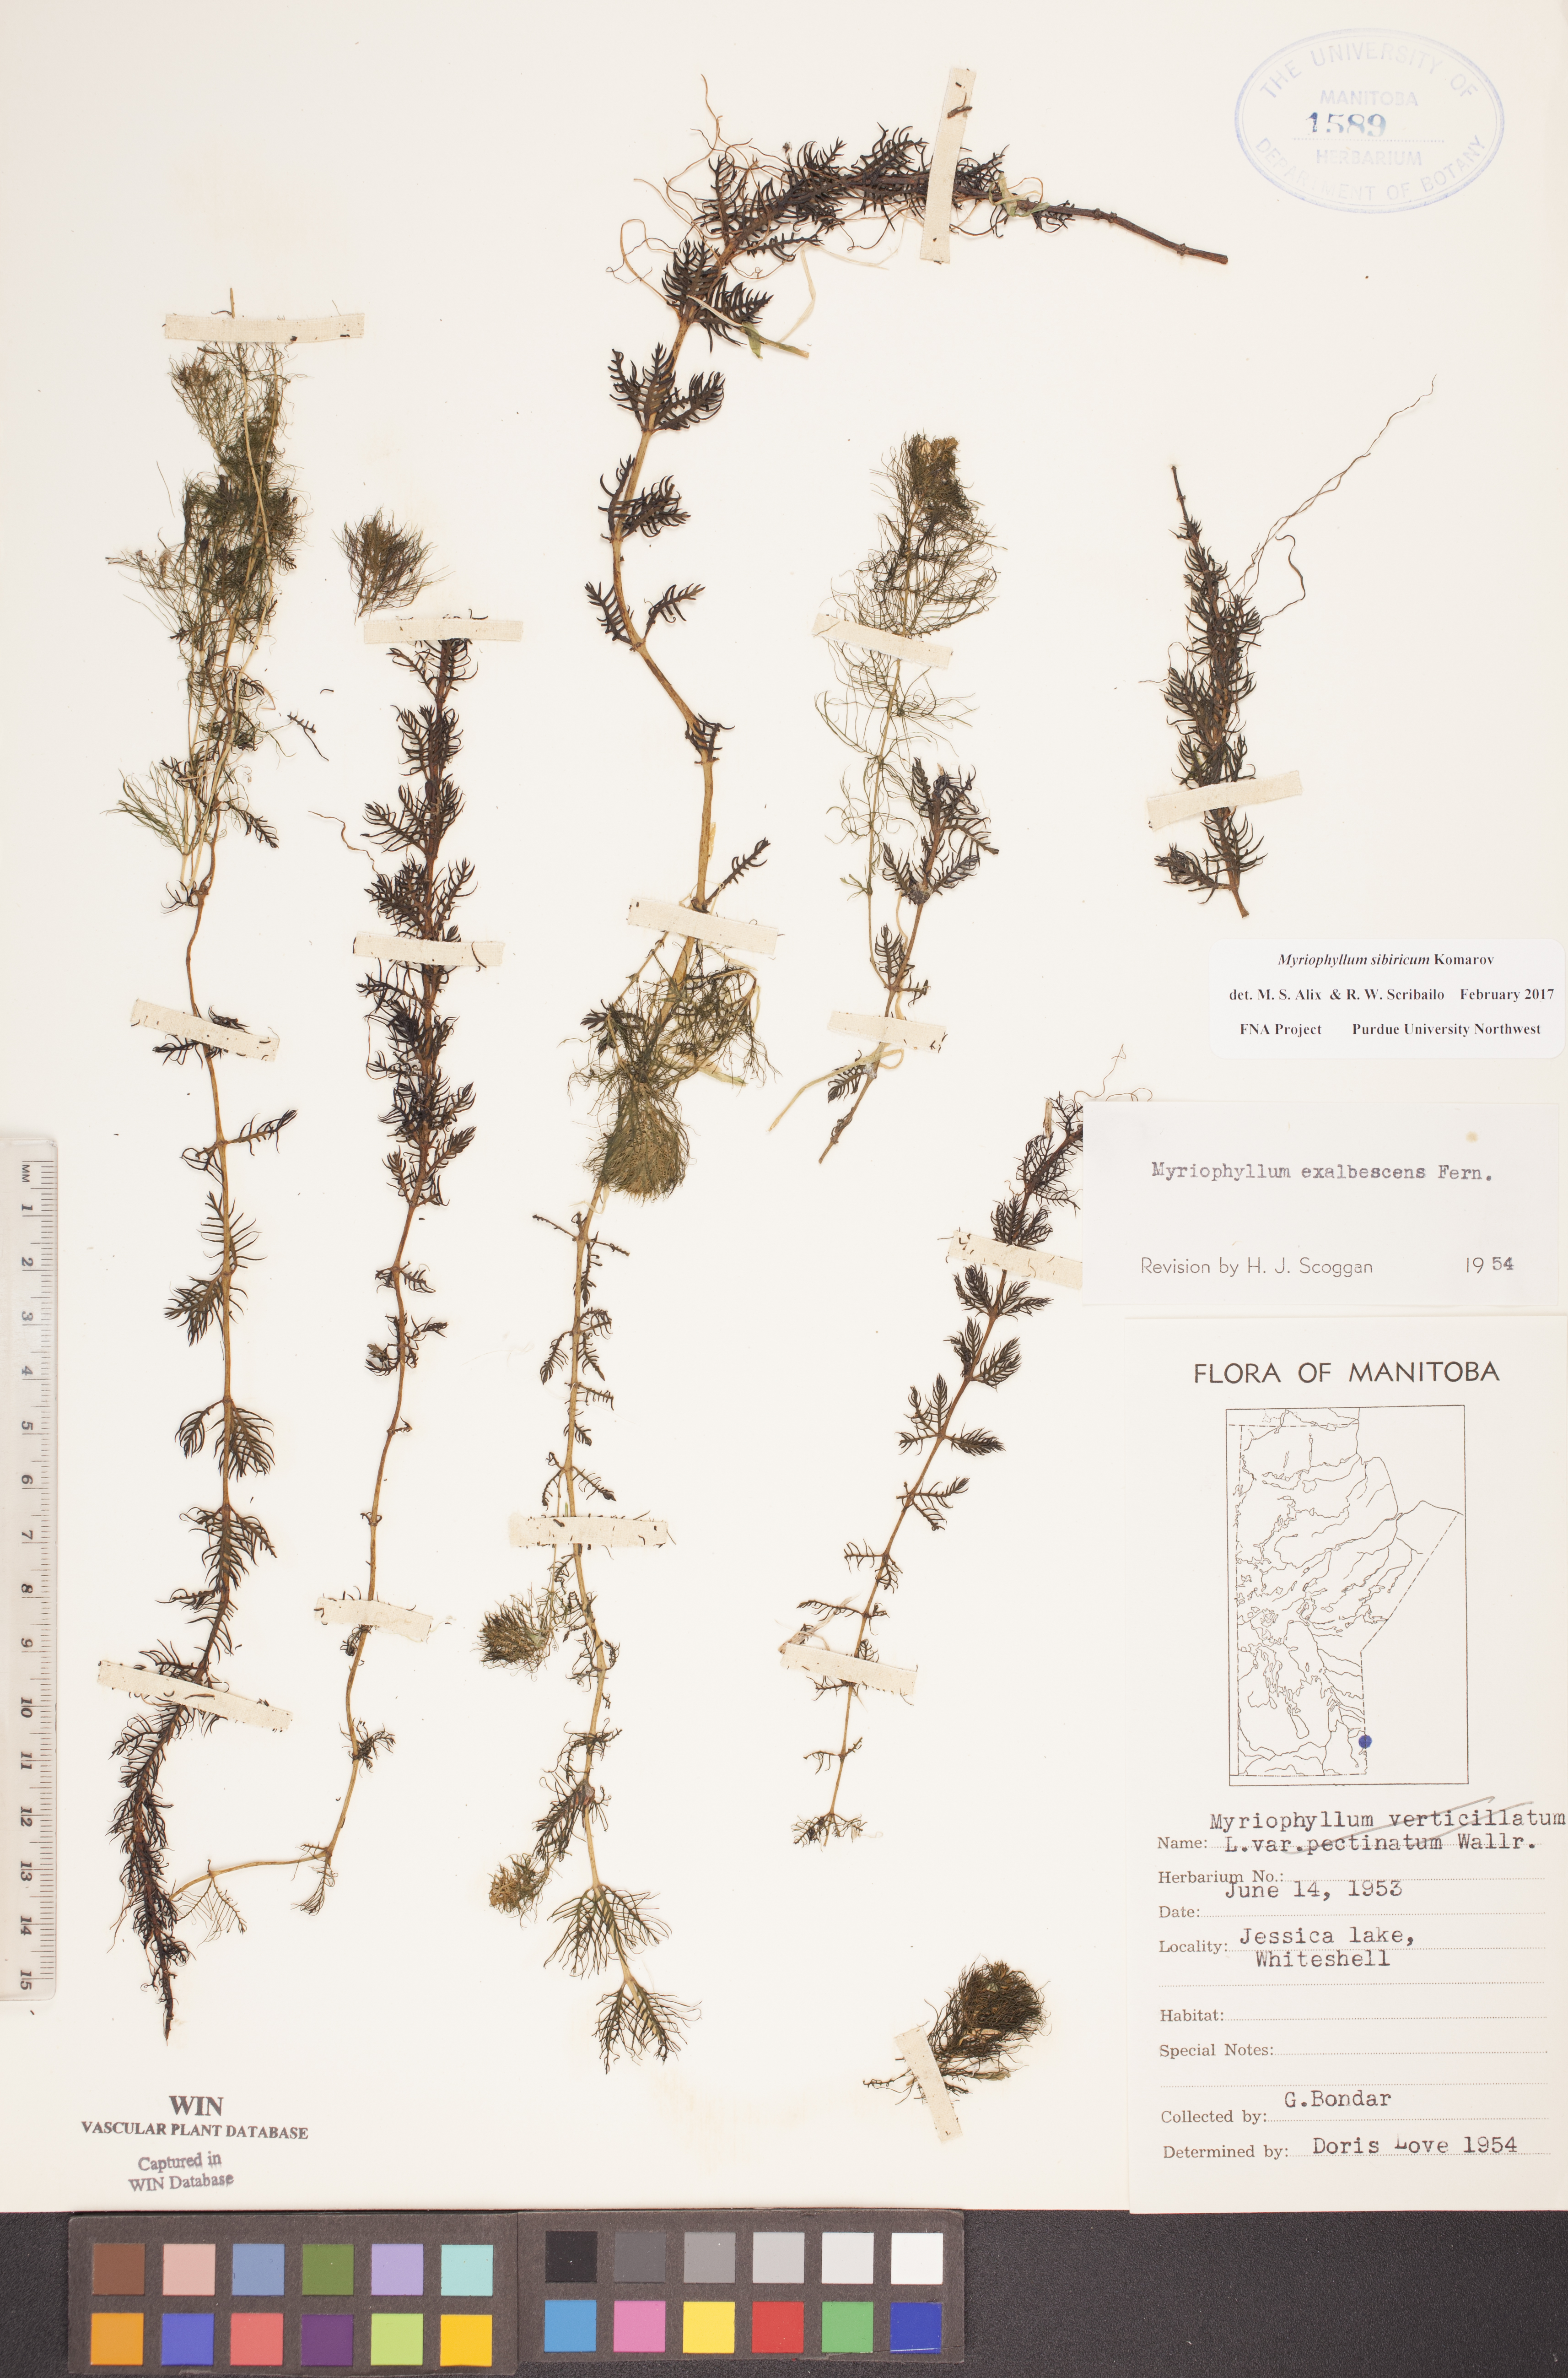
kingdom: Plantae
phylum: Tracheophyta
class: Magnoliopsida
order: Saxifragales
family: Haloragaceae
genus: Myriophyllum
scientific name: Myriophyllum sibiricum
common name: Siberian water-milfoil
